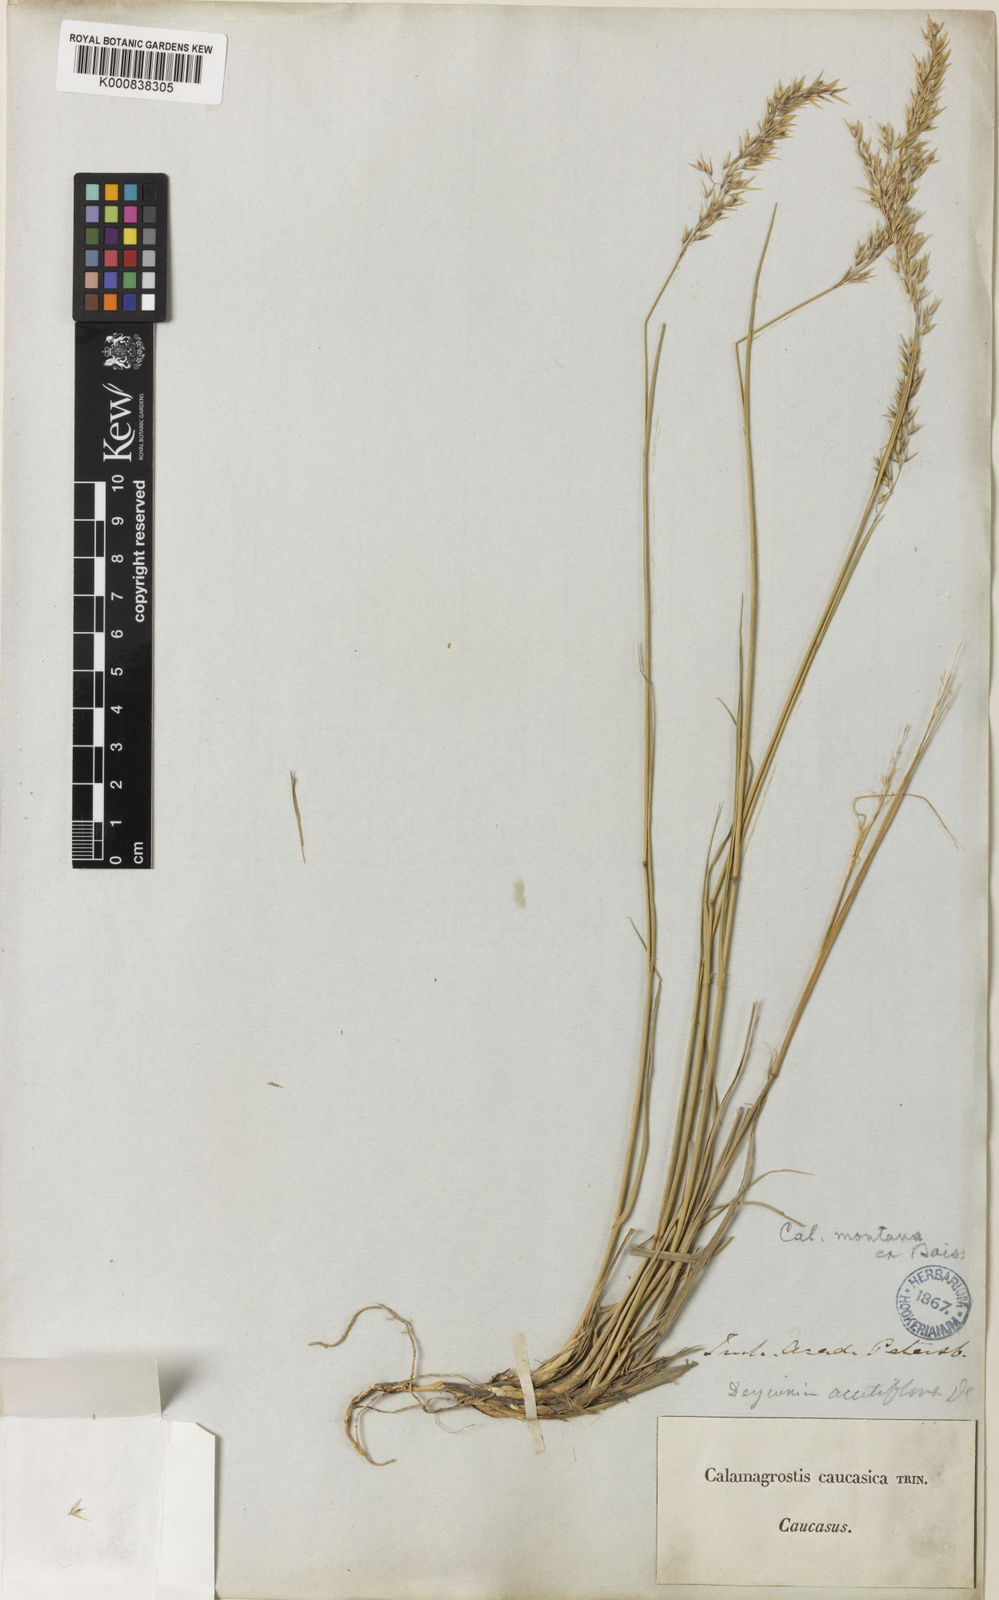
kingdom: Plantae
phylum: Tracheophyta
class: Liliopsida
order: Poales
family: Poaceae
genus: Calamagrostis
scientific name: Calamagrostis caucasica
